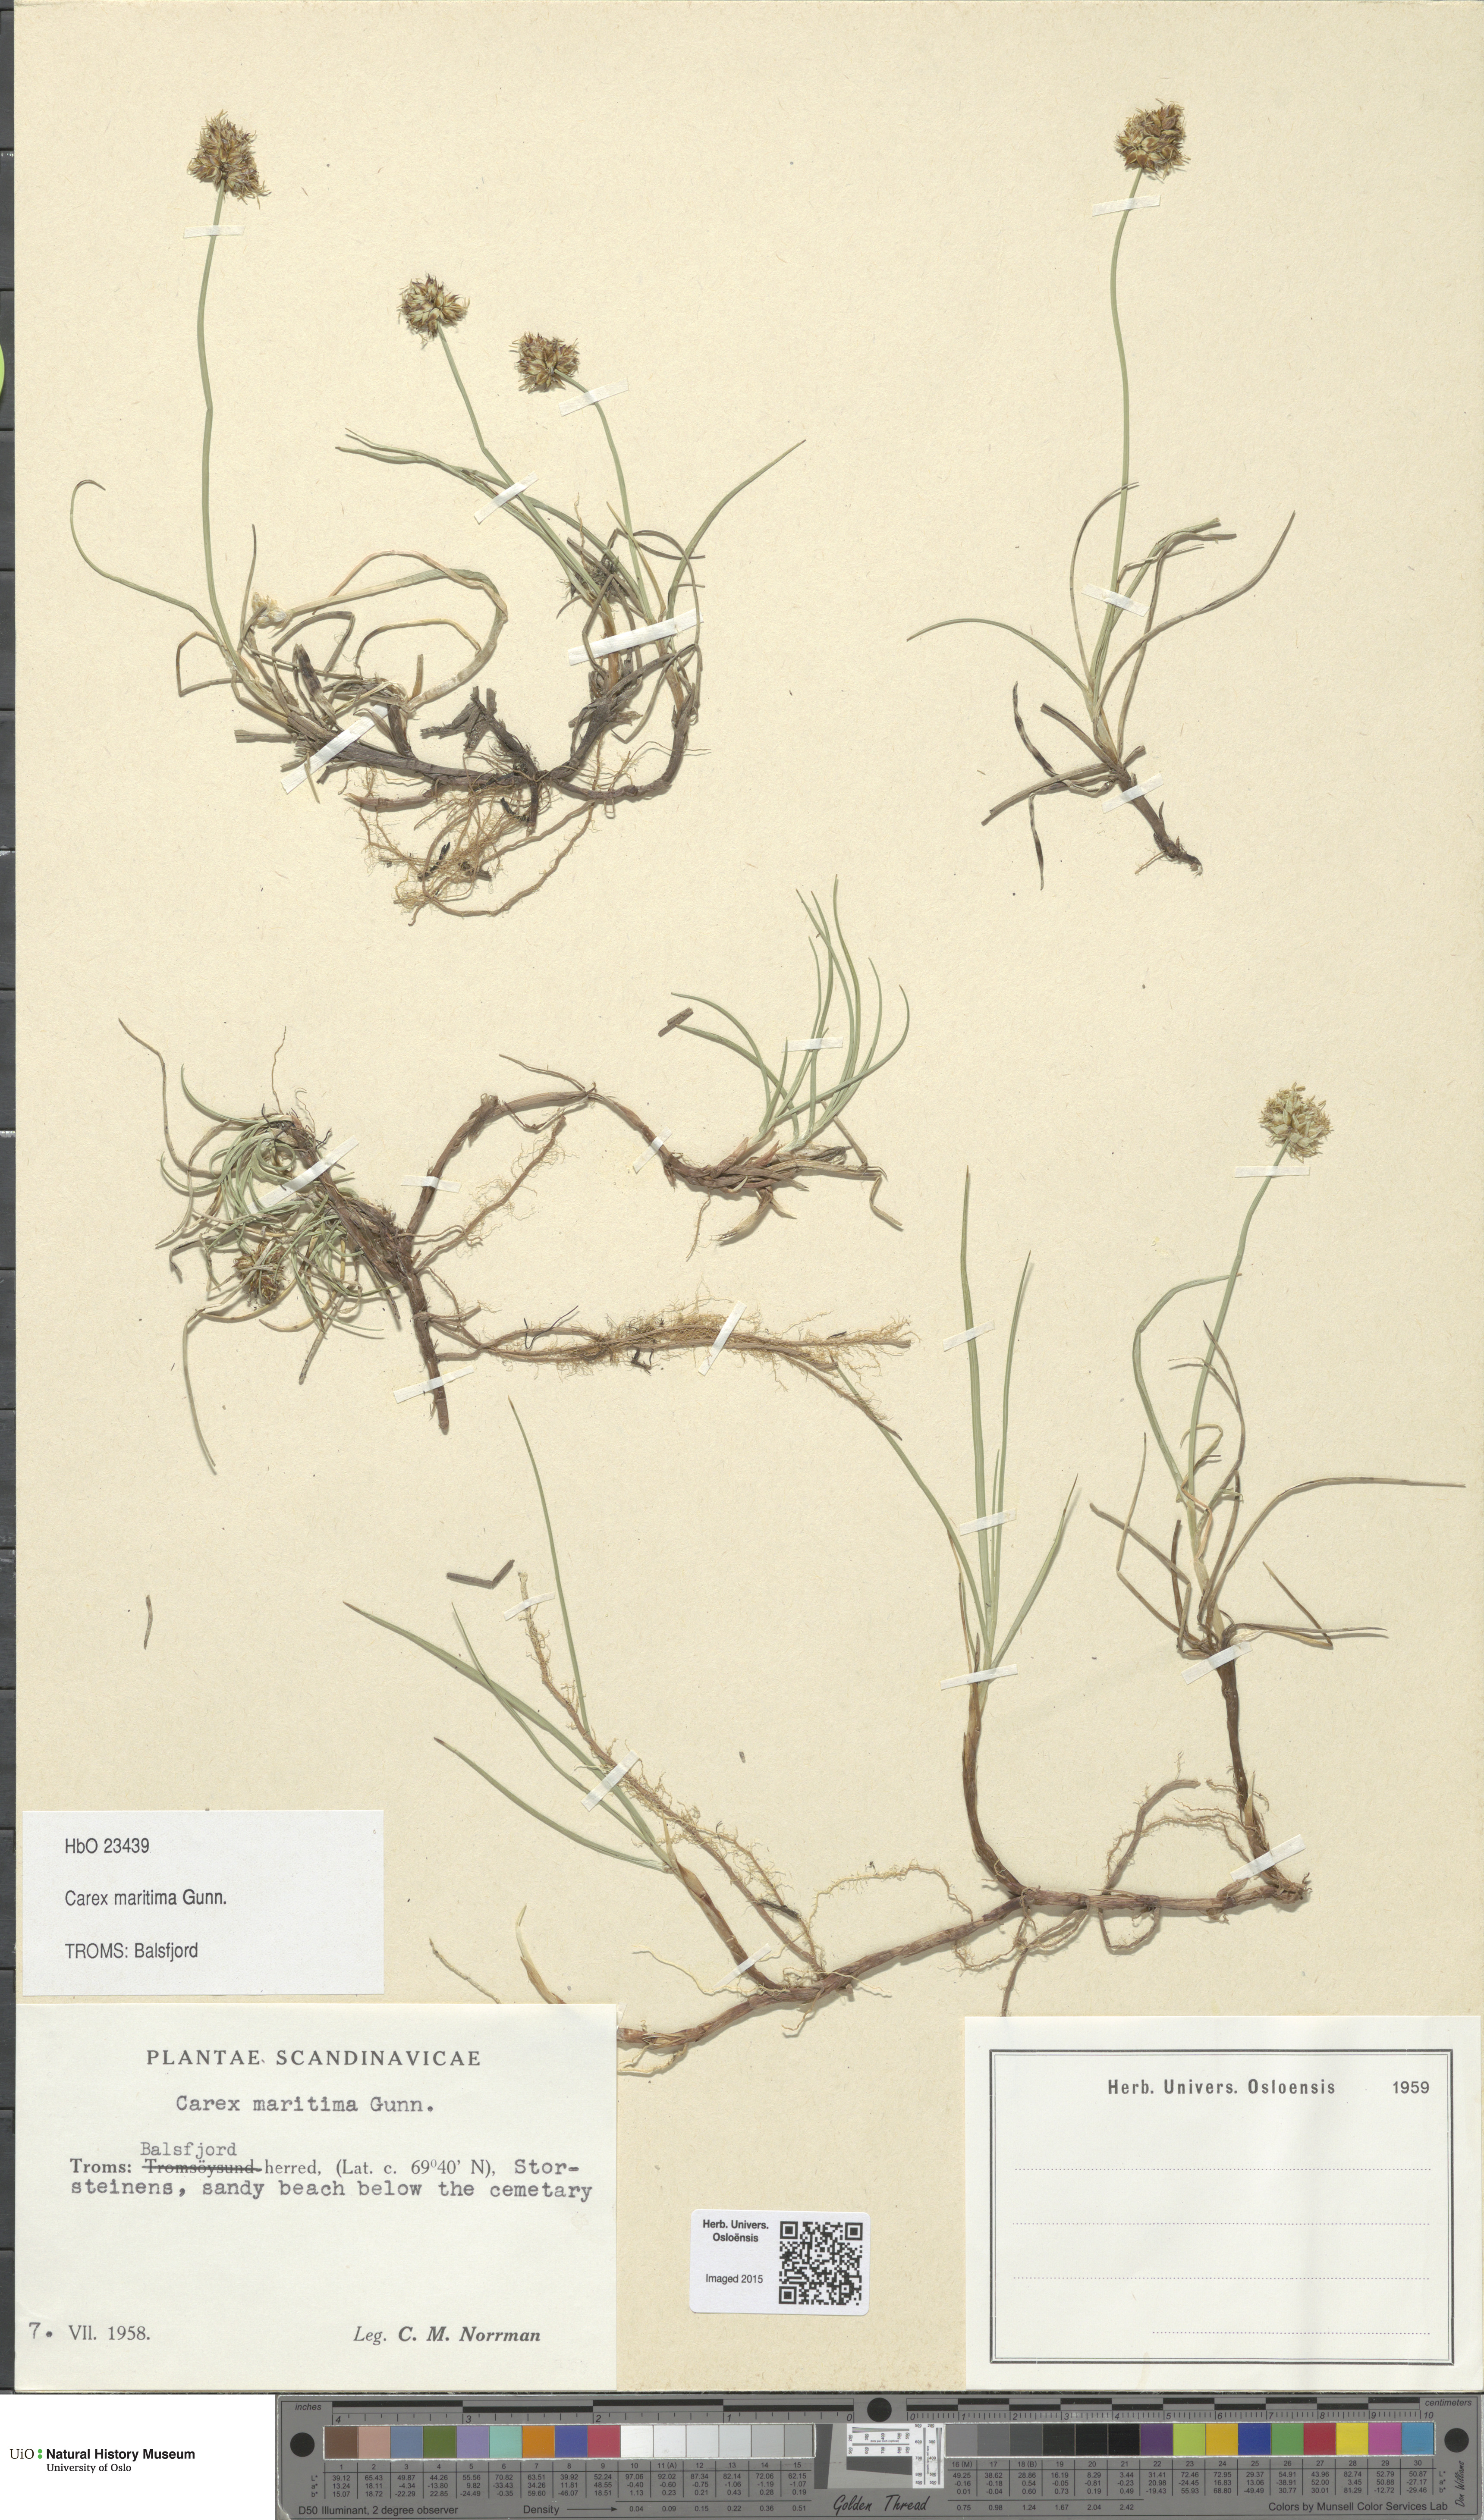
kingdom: Plantae
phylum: Tracheophyta
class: Liliopsida
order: Poales
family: Cyperaceae
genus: Carex
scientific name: Carex maritima
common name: Curved sedge
